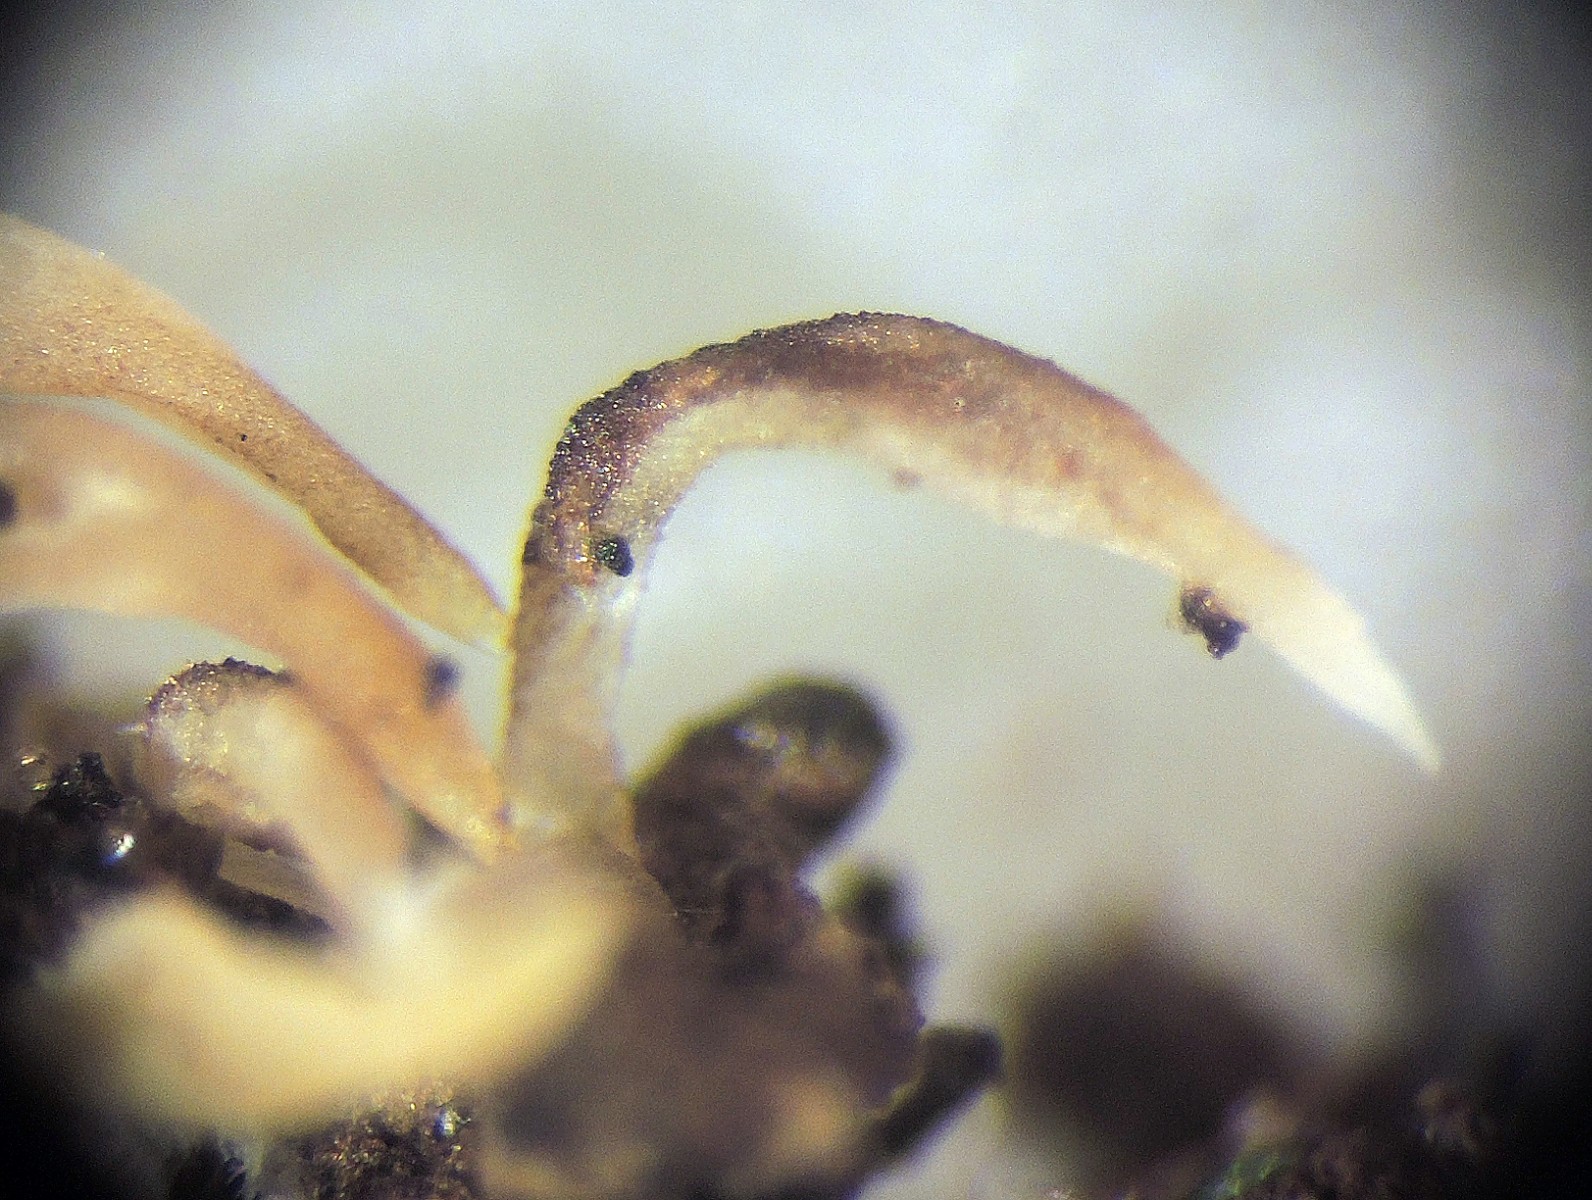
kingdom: Fungi
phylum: Basidiomycota
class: Agaricomycetes
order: Agaricales
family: Clavariaceae
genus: Mucronella
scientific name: Mucronella bresadolae
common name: knippe-hængepig
